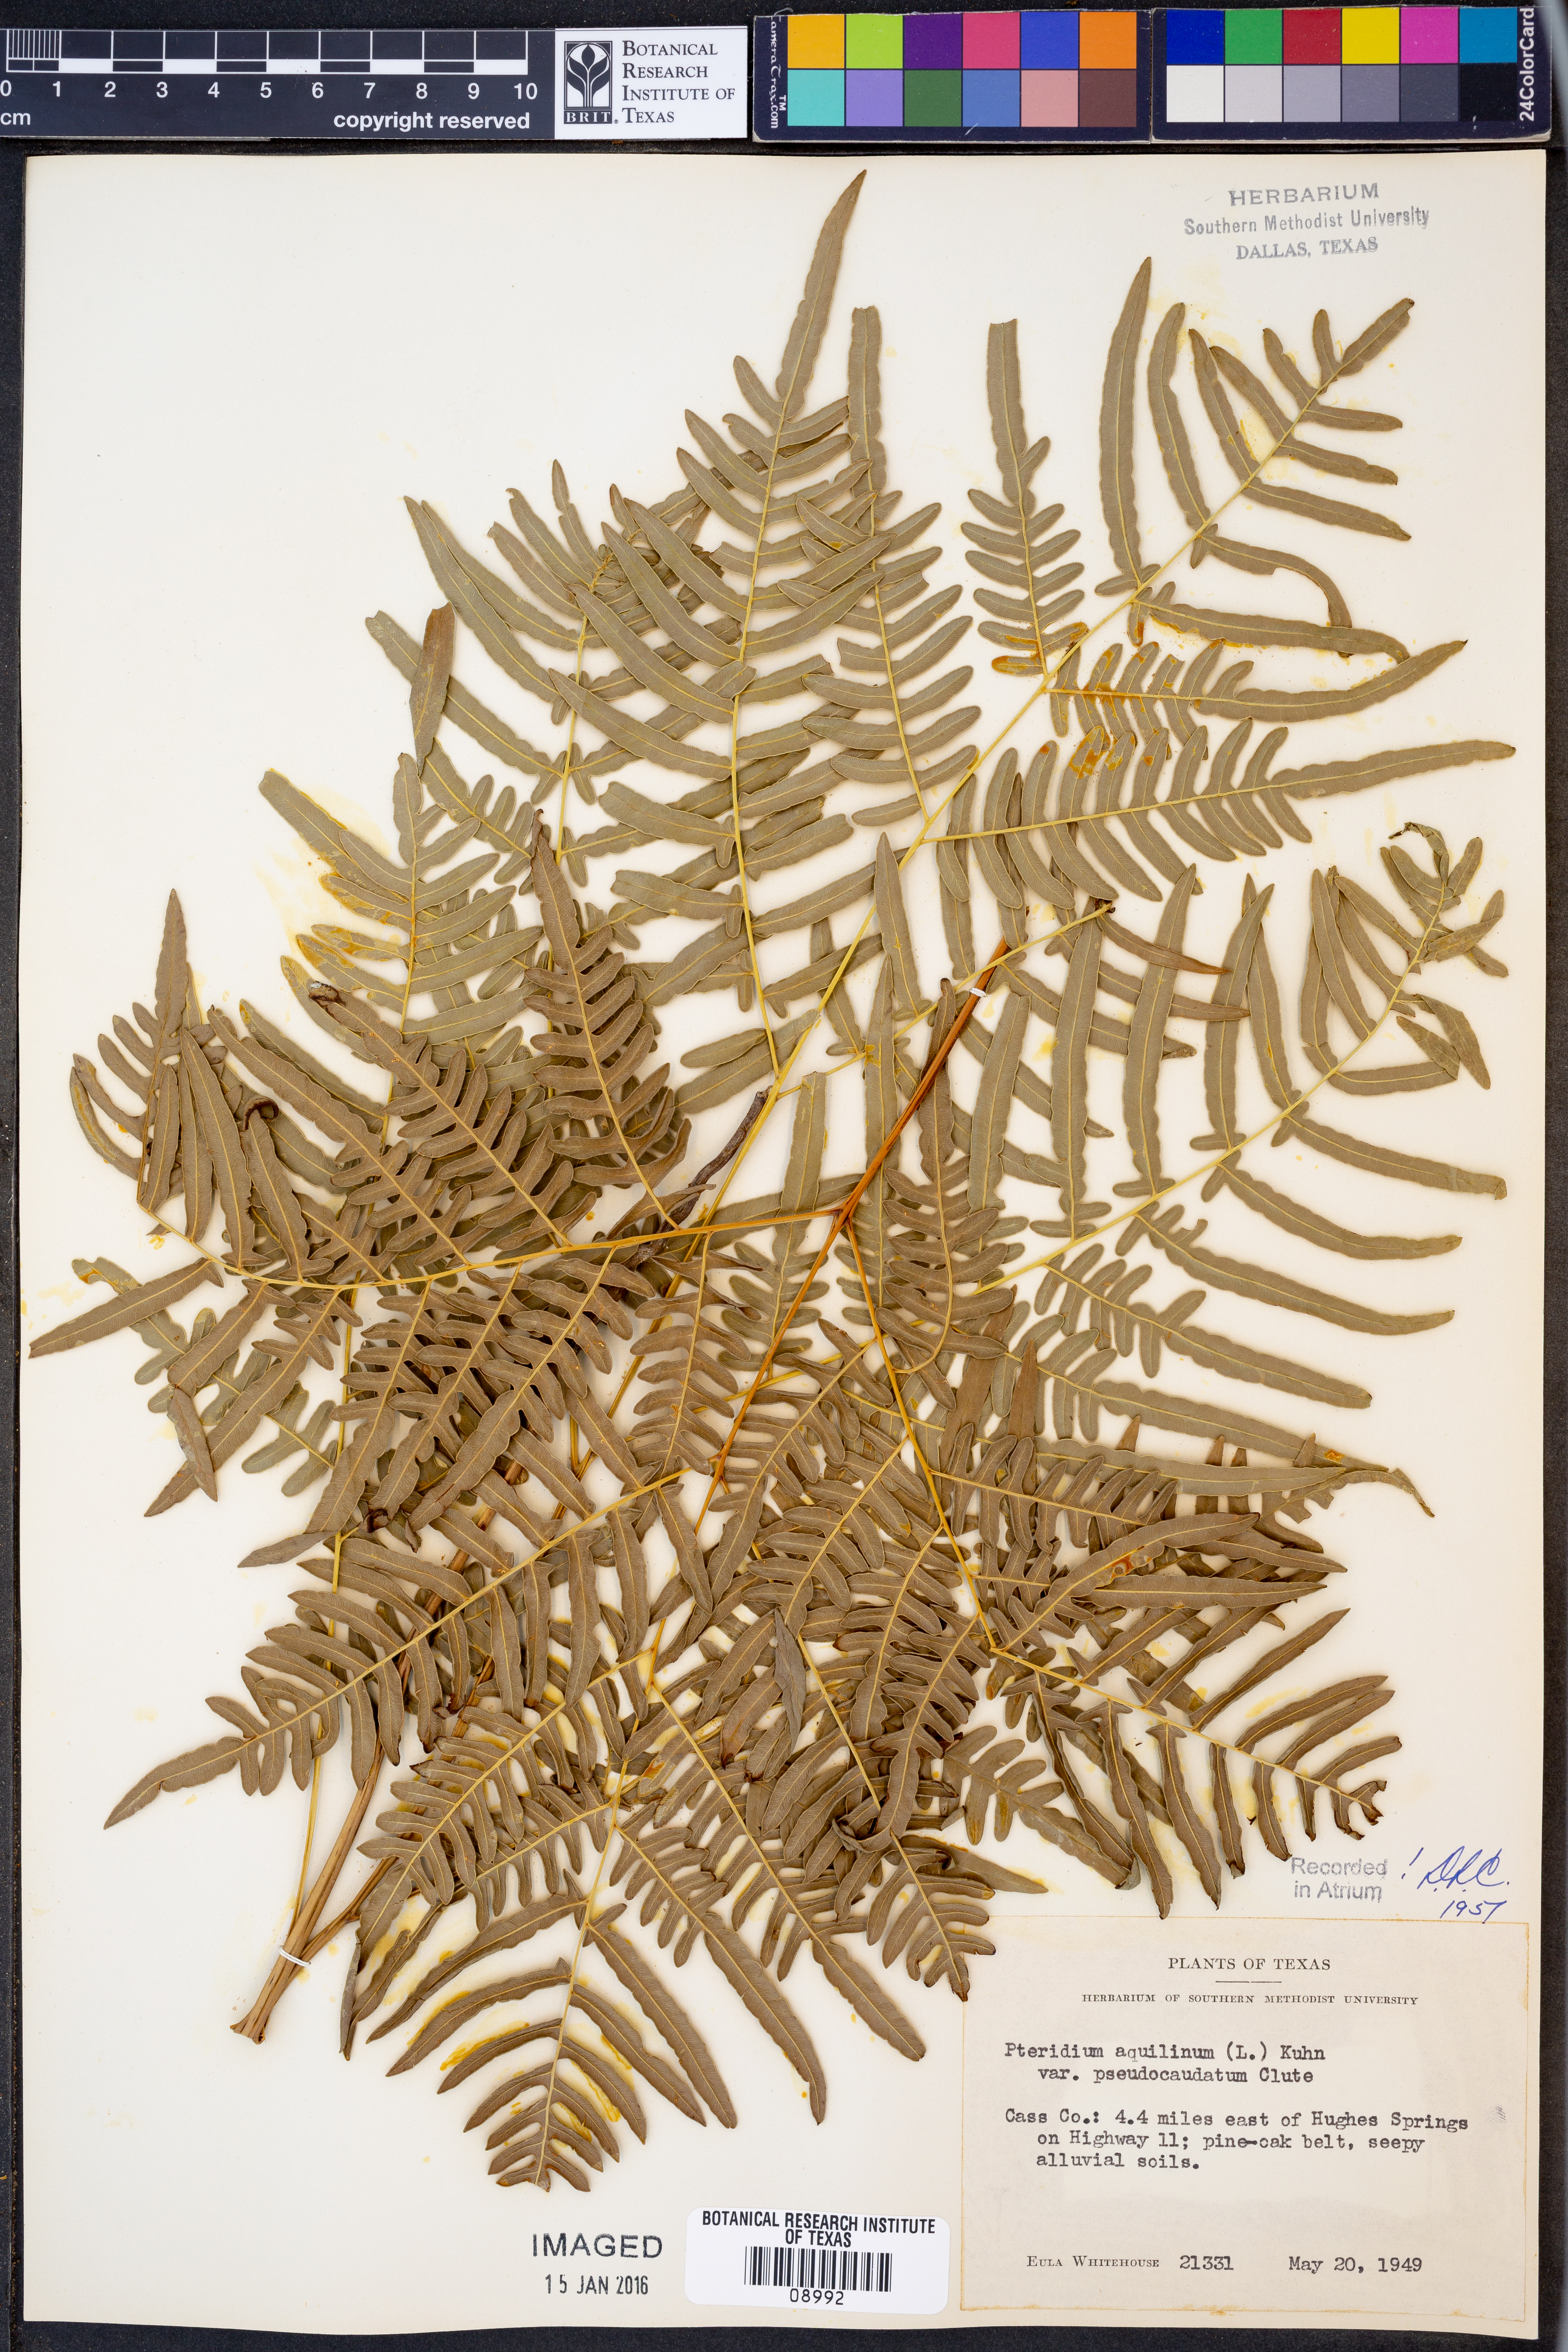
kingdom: Plantae
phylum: Tracheophyta
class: Polypodiopsida
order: Polypodiales
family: Dennstaedtiaceae
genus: Pteridium
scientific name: Pteridium aquilinum
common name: Bracken
